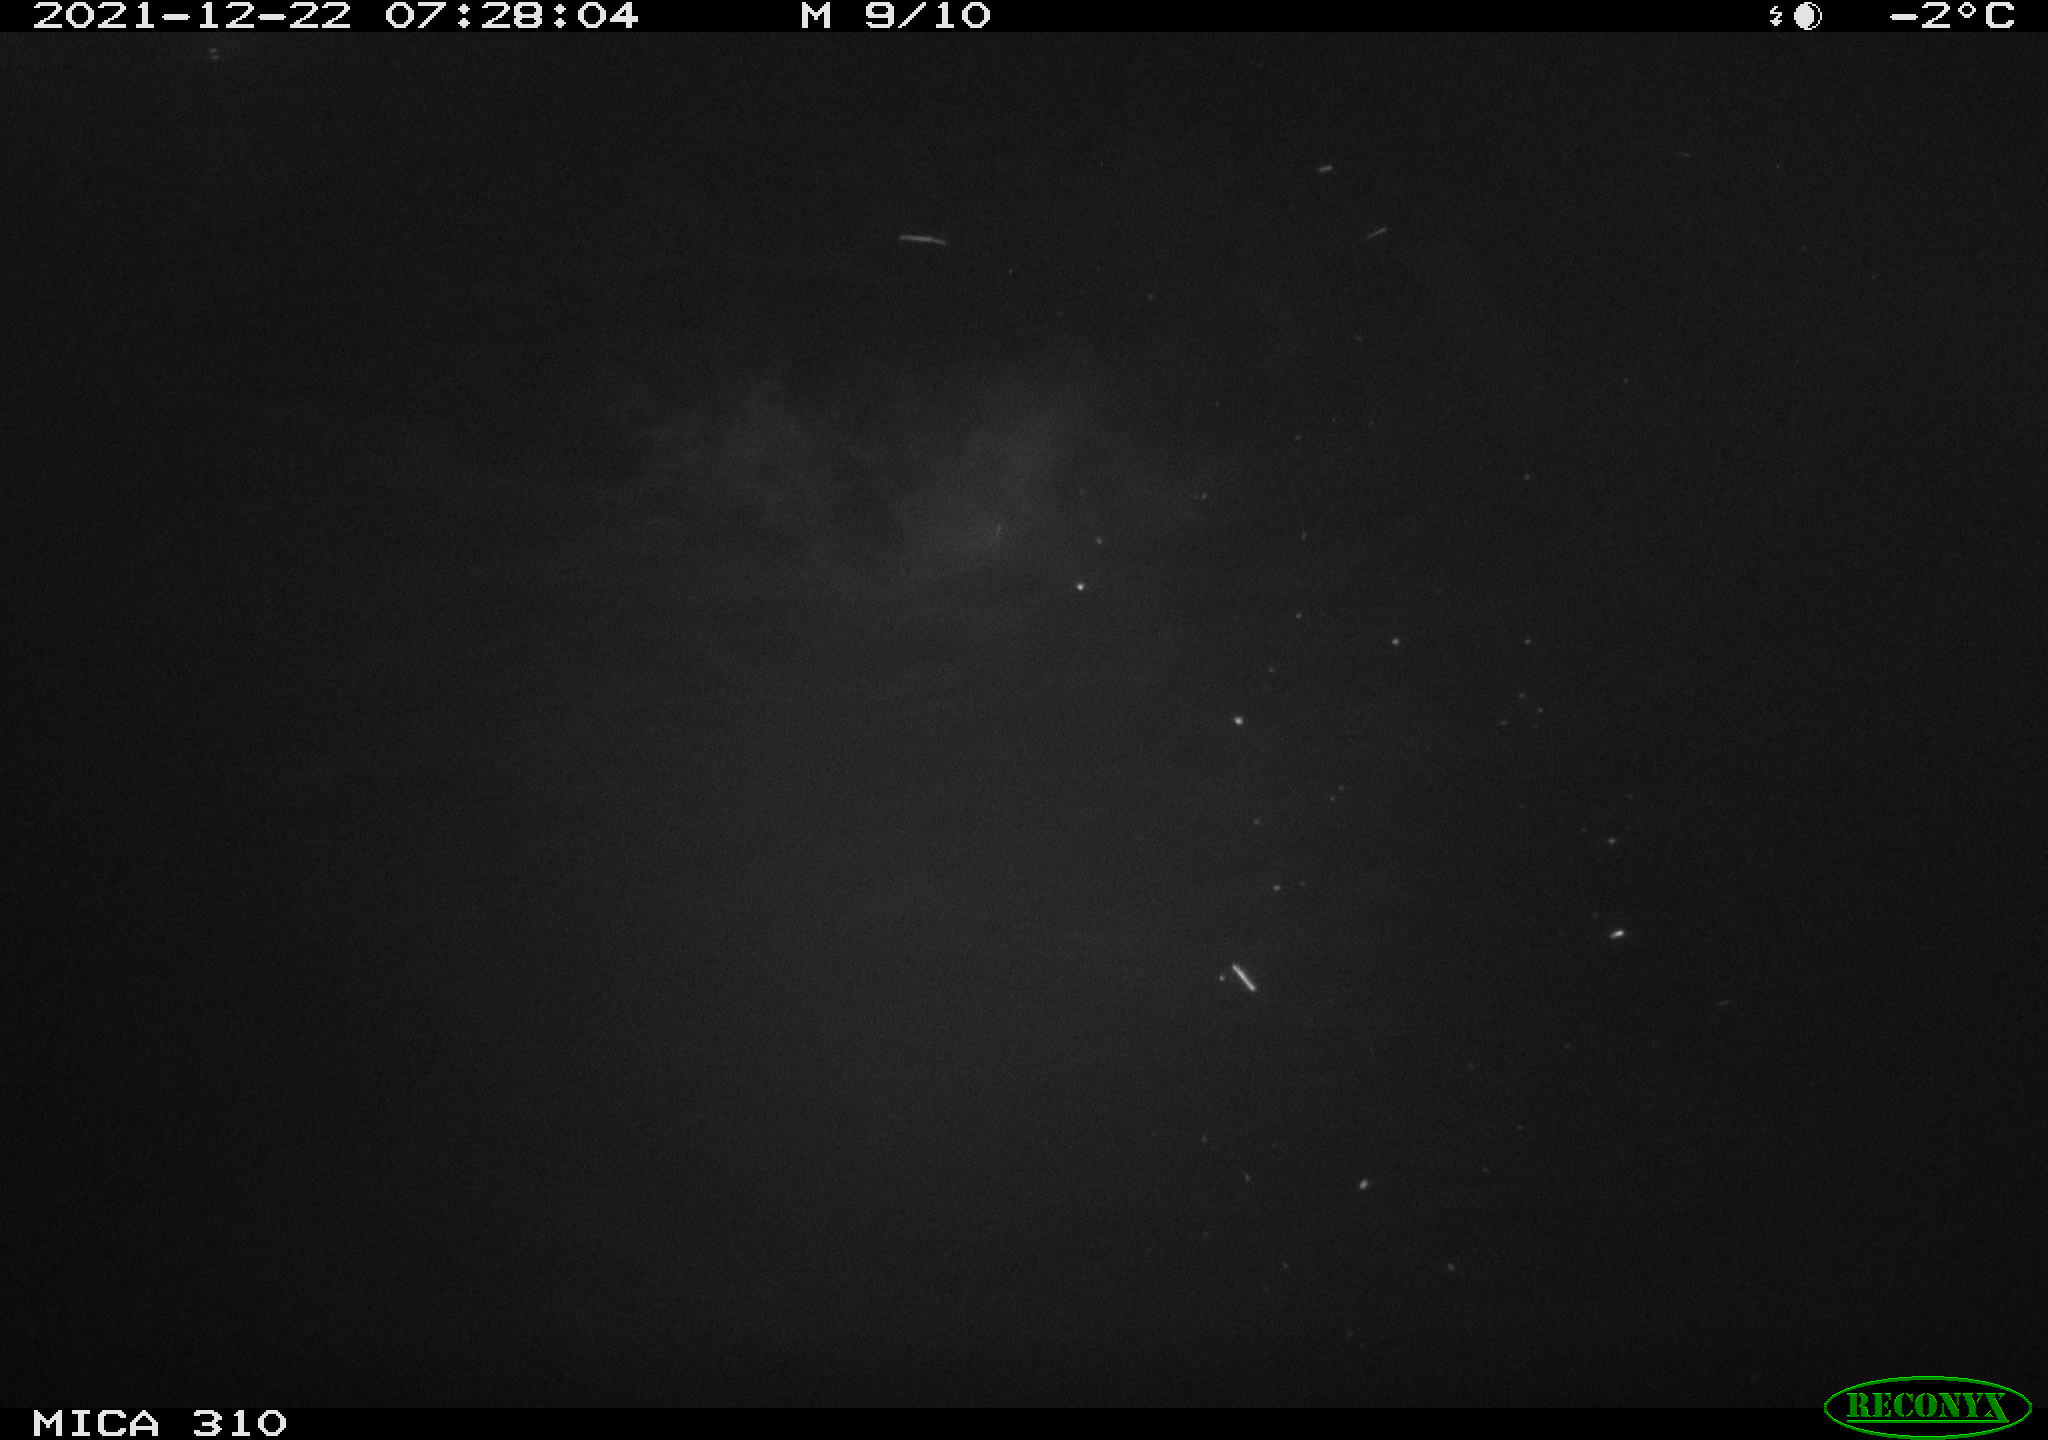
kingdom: Animalia
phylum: Chordata
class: Aves
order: Gruiformes
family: Rallidae
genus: Fulica
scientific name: Fulica atra
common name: Eurasian coot
